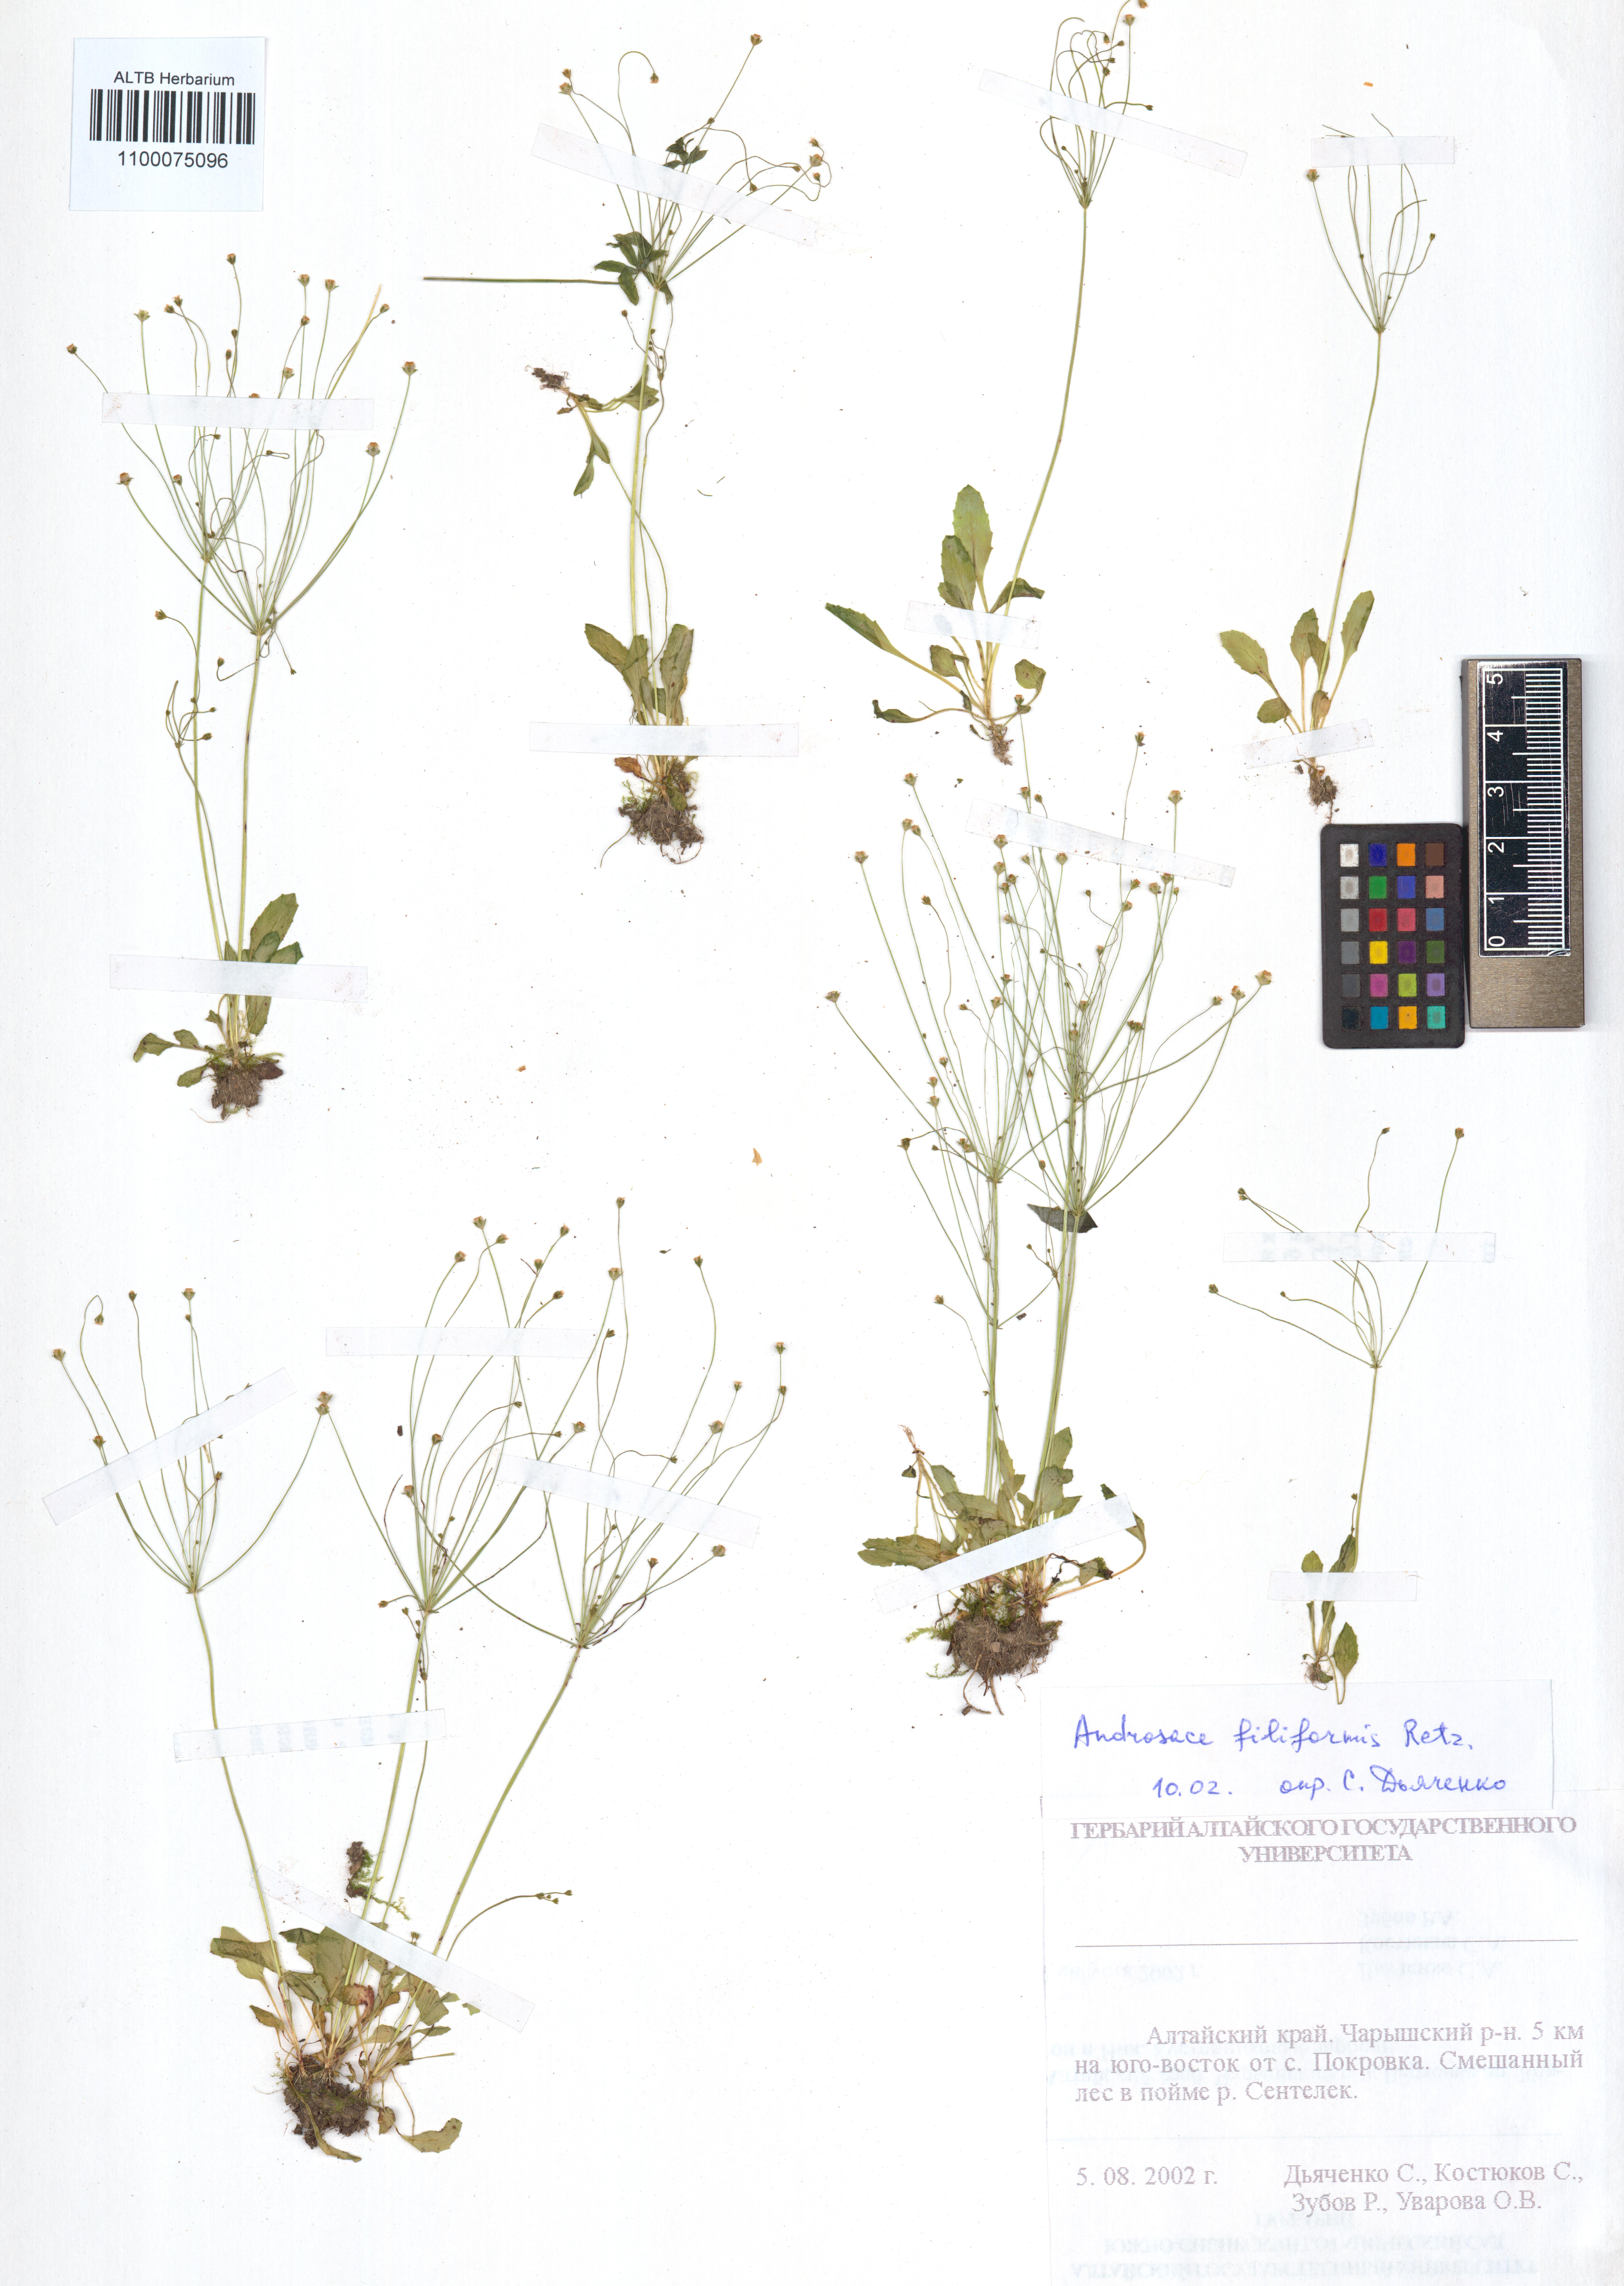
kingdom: Plantae
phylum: Tracheophyta
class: Magnoliopsida
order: Ericales
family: Primulaceae
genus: Androsace
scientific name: Androsace filiformis
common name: Filiform rock jasmine
